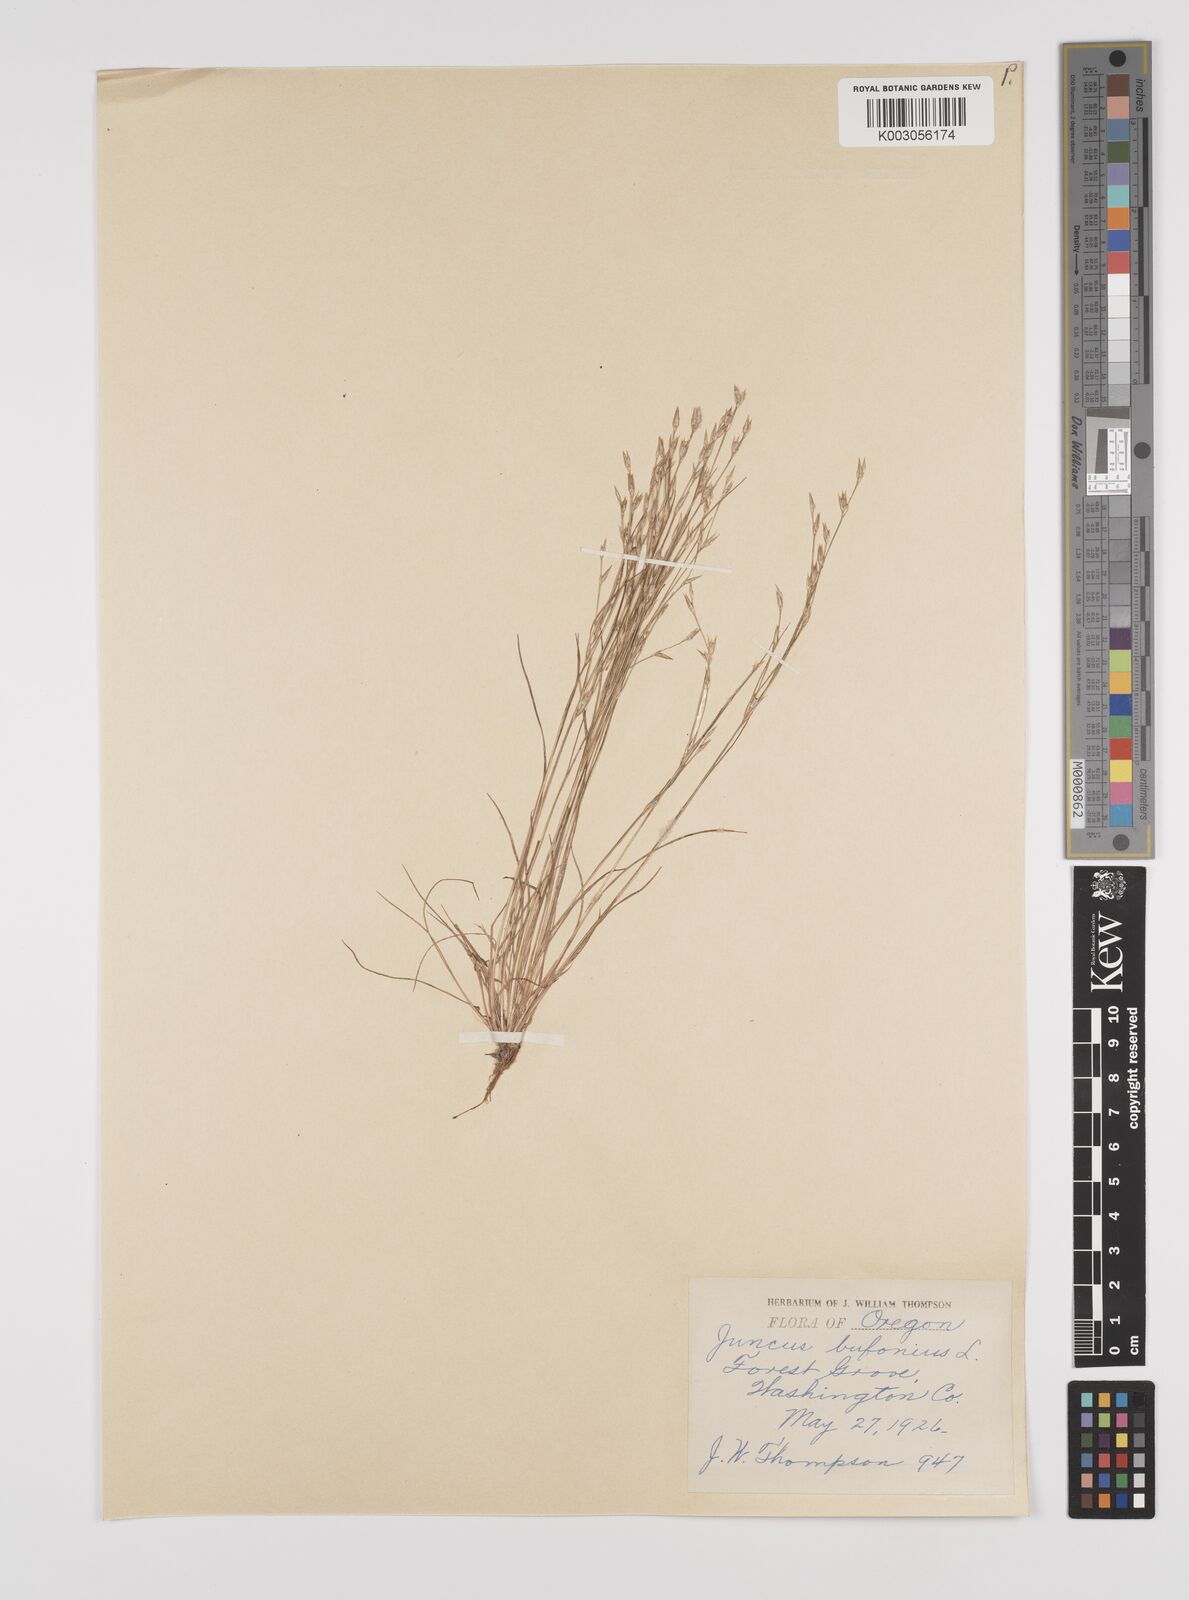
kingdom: Plantae
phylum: Tracheophyta
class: Liliopsida
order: Poales
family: Juncaceae
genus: Juncus
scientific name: Juncus bufonius
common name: Toad rush
